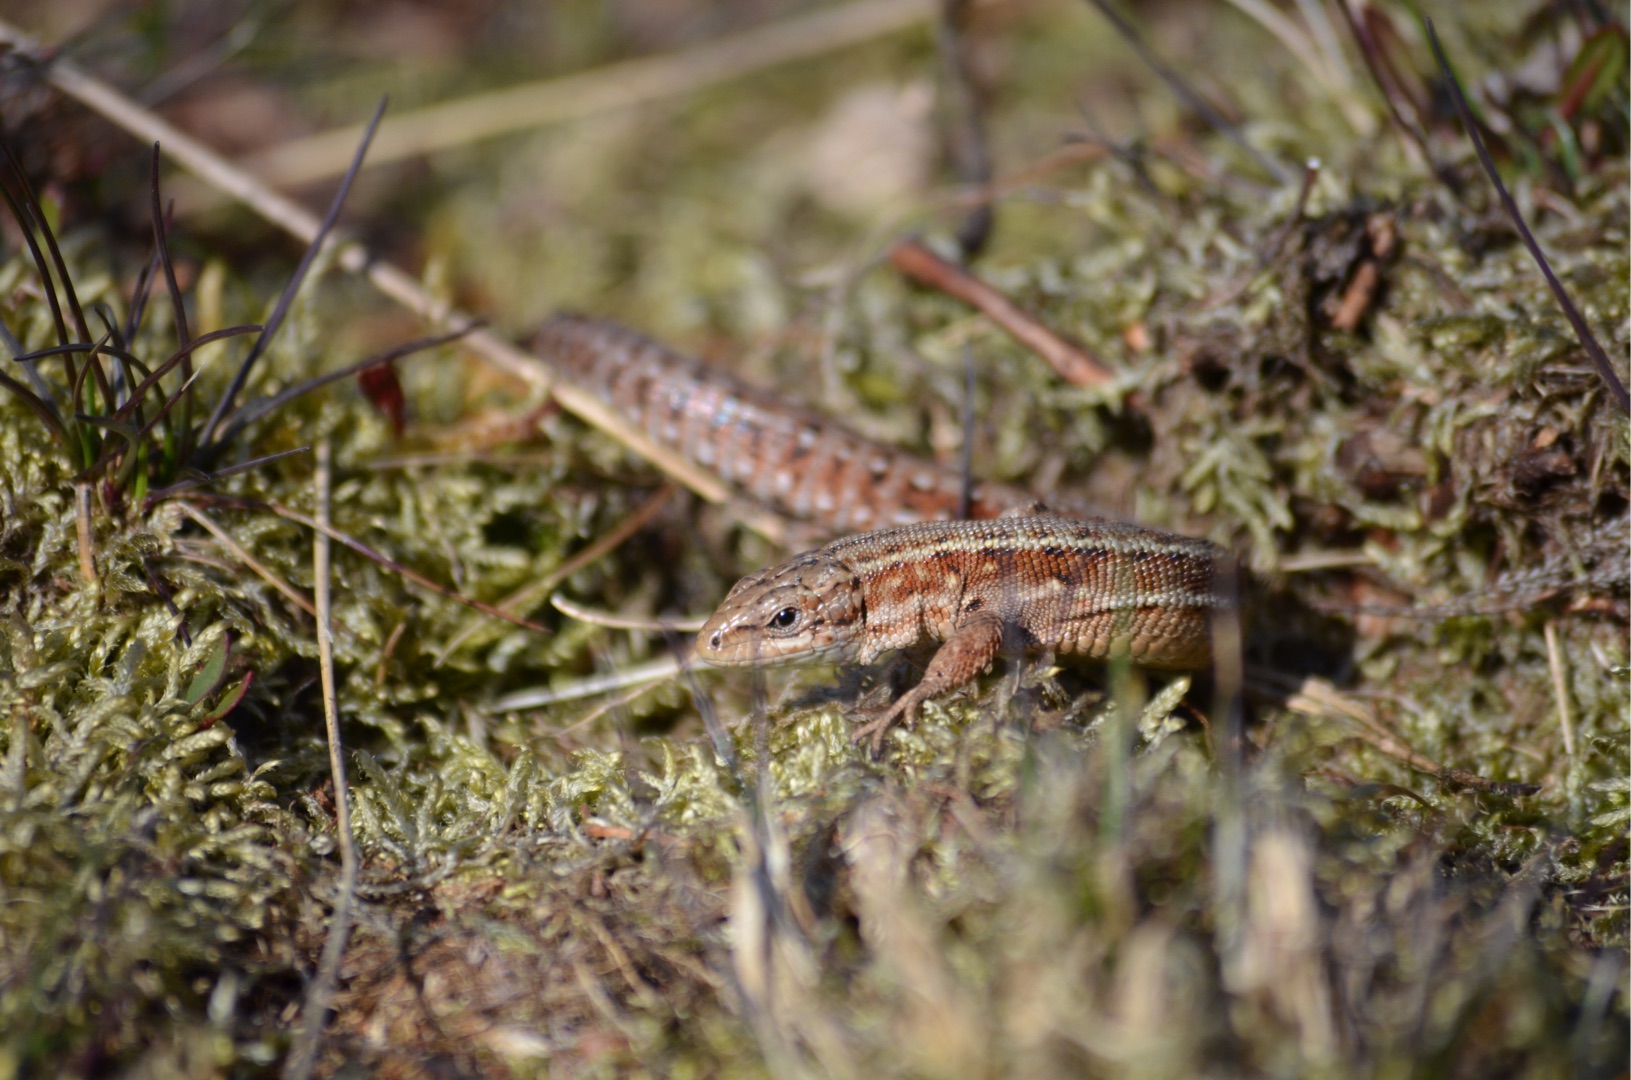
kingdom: Animalia
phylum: Chordata
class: Squamata
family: Lacertidae
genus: Zootoca
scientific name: Zootoca vivipara
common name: Skovfirben
